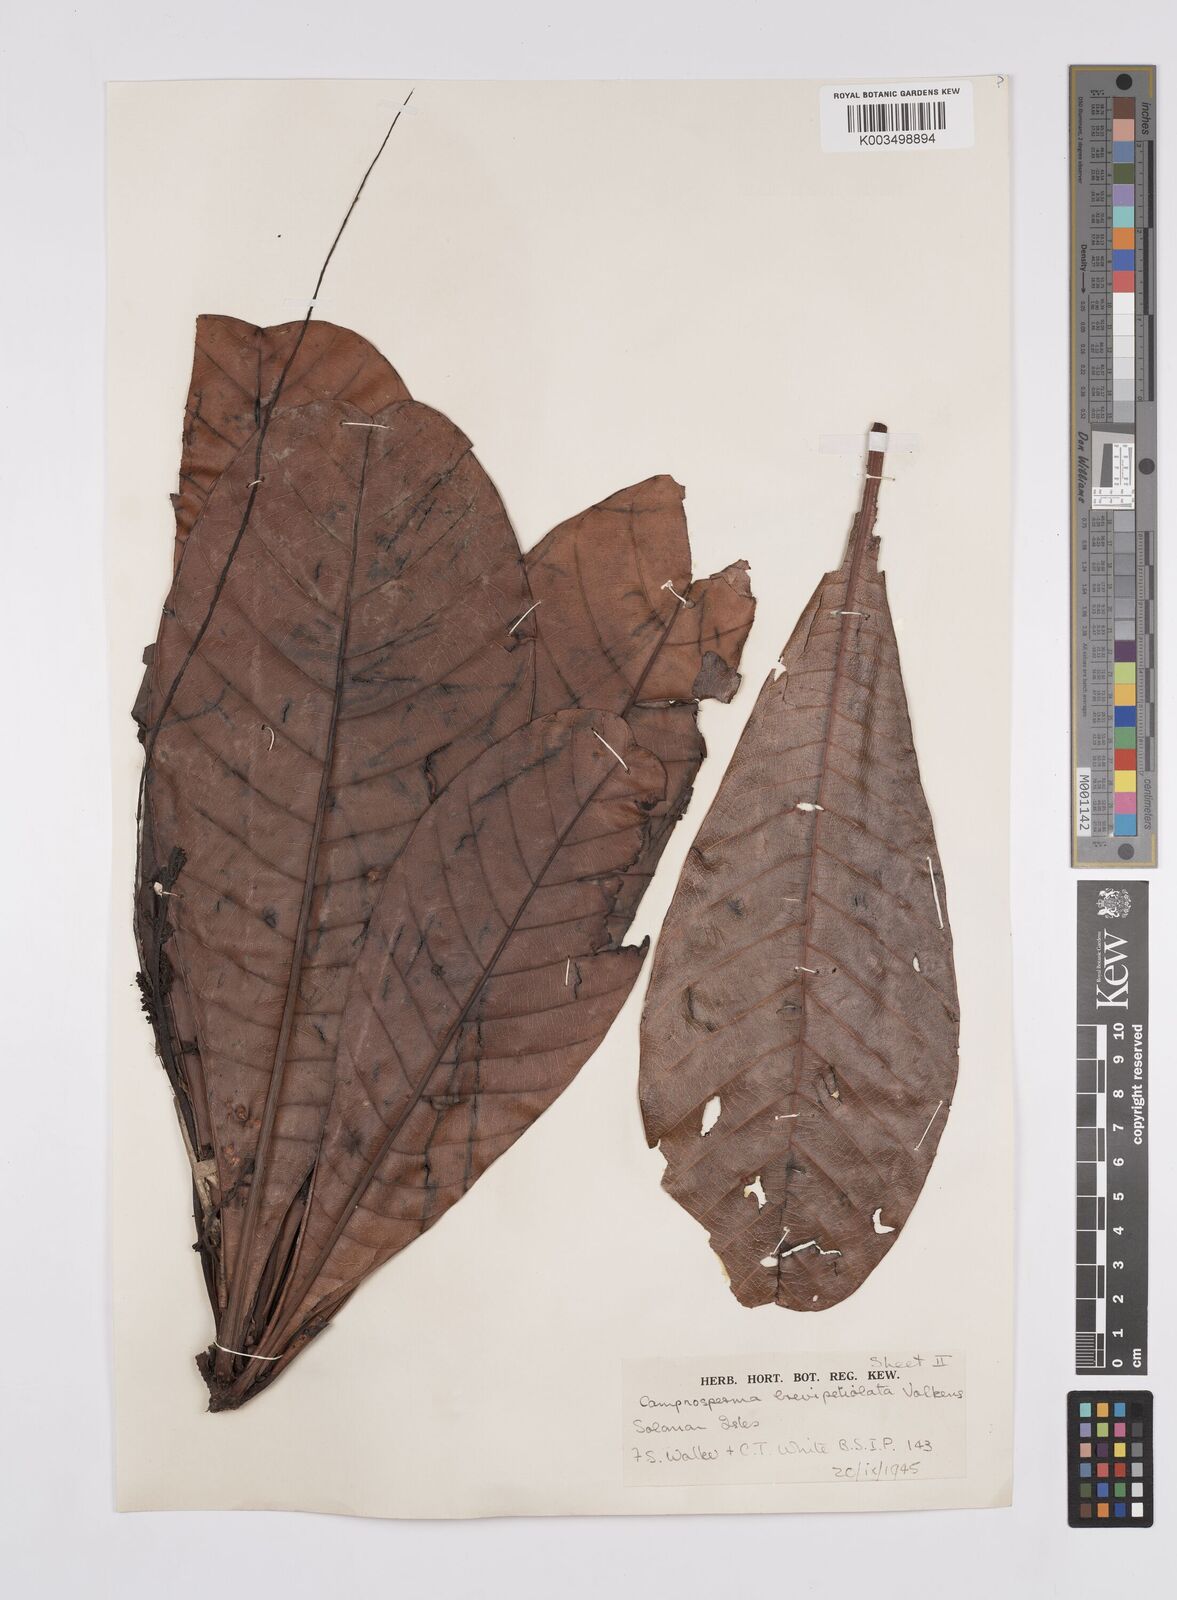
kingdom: Plantae
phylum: Tracheophyta
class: Magnoliopsida
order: Sapindales
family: Anacardiaceae
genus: Campnosperma
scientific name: Campnosperma brevipetiolatum
